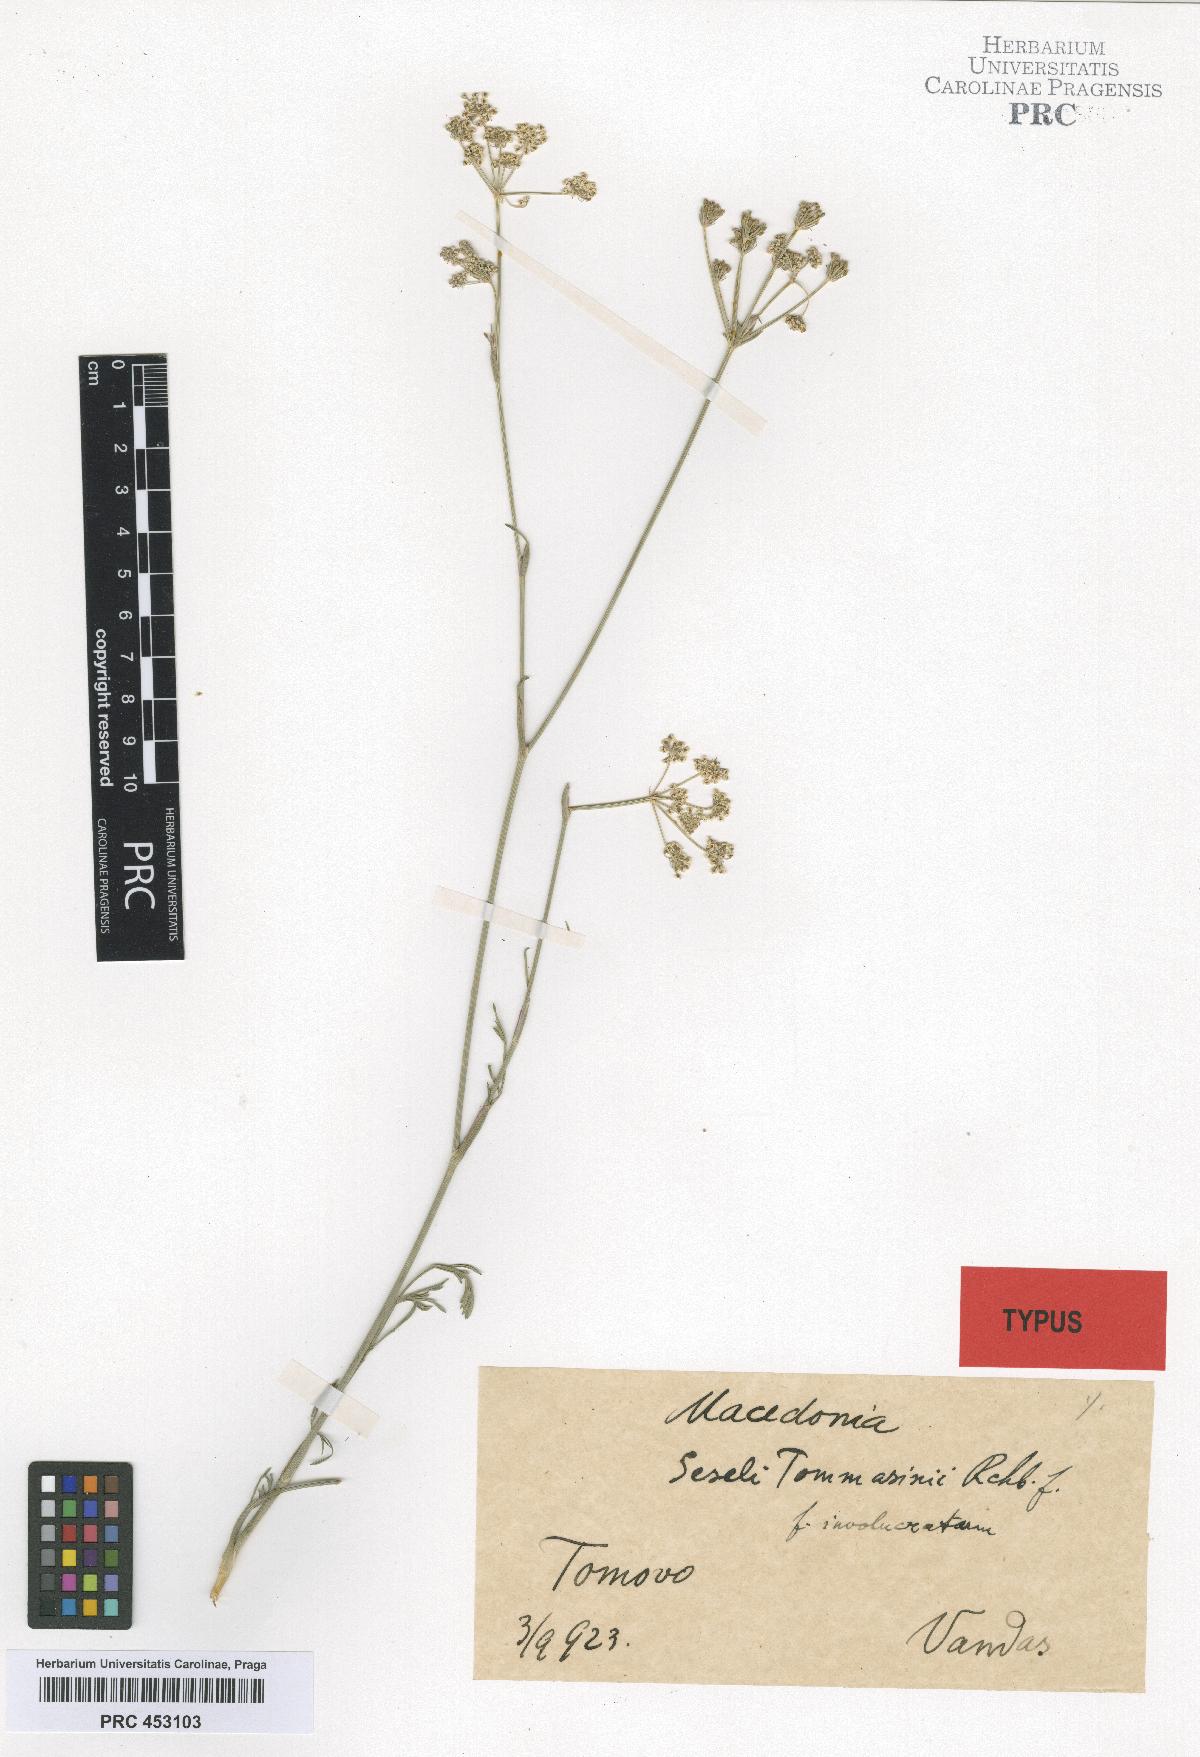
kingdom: Plantae
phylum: Tracheophyta
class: Magnoliopsida
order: Apiales
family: Apiaceae
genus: Seseli
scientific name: Seseli montanum
